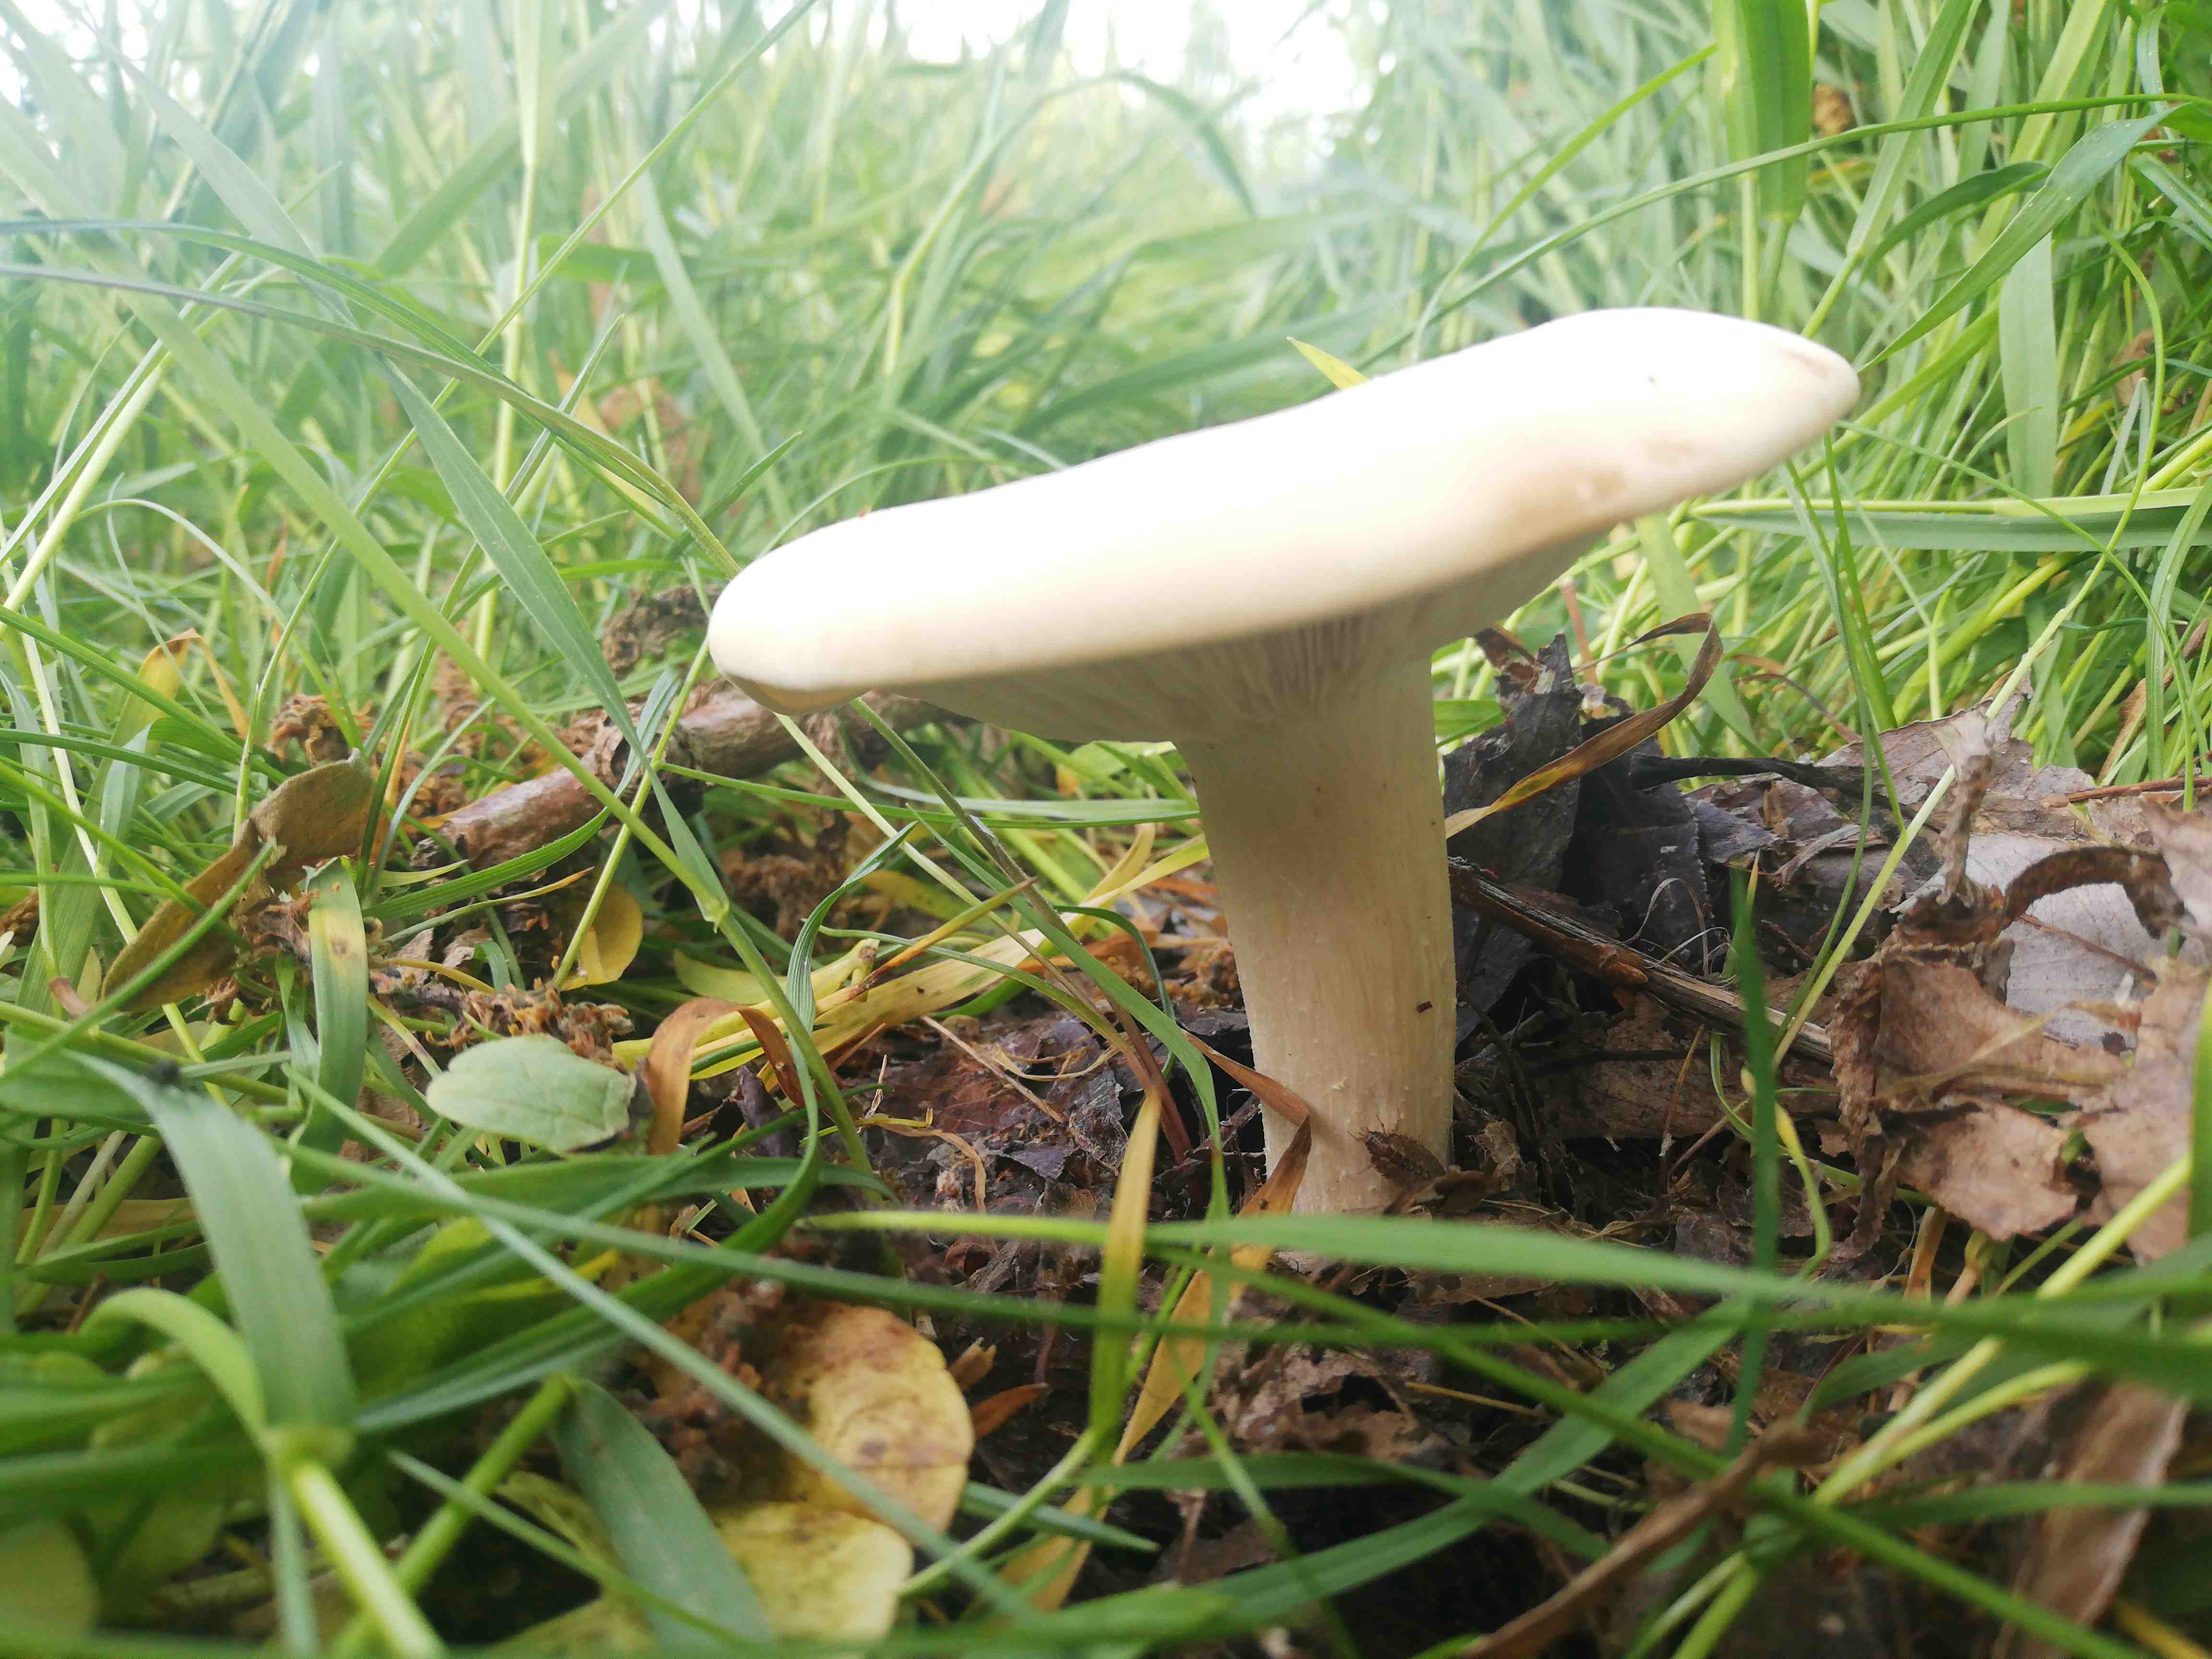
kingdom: Fungi
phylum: Basidiomycota
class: Agaricomycetes
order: Agaricales
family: Lyophyllaceae
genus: Calocybe
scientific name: Calocybe gambosa
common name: vårmusseron
